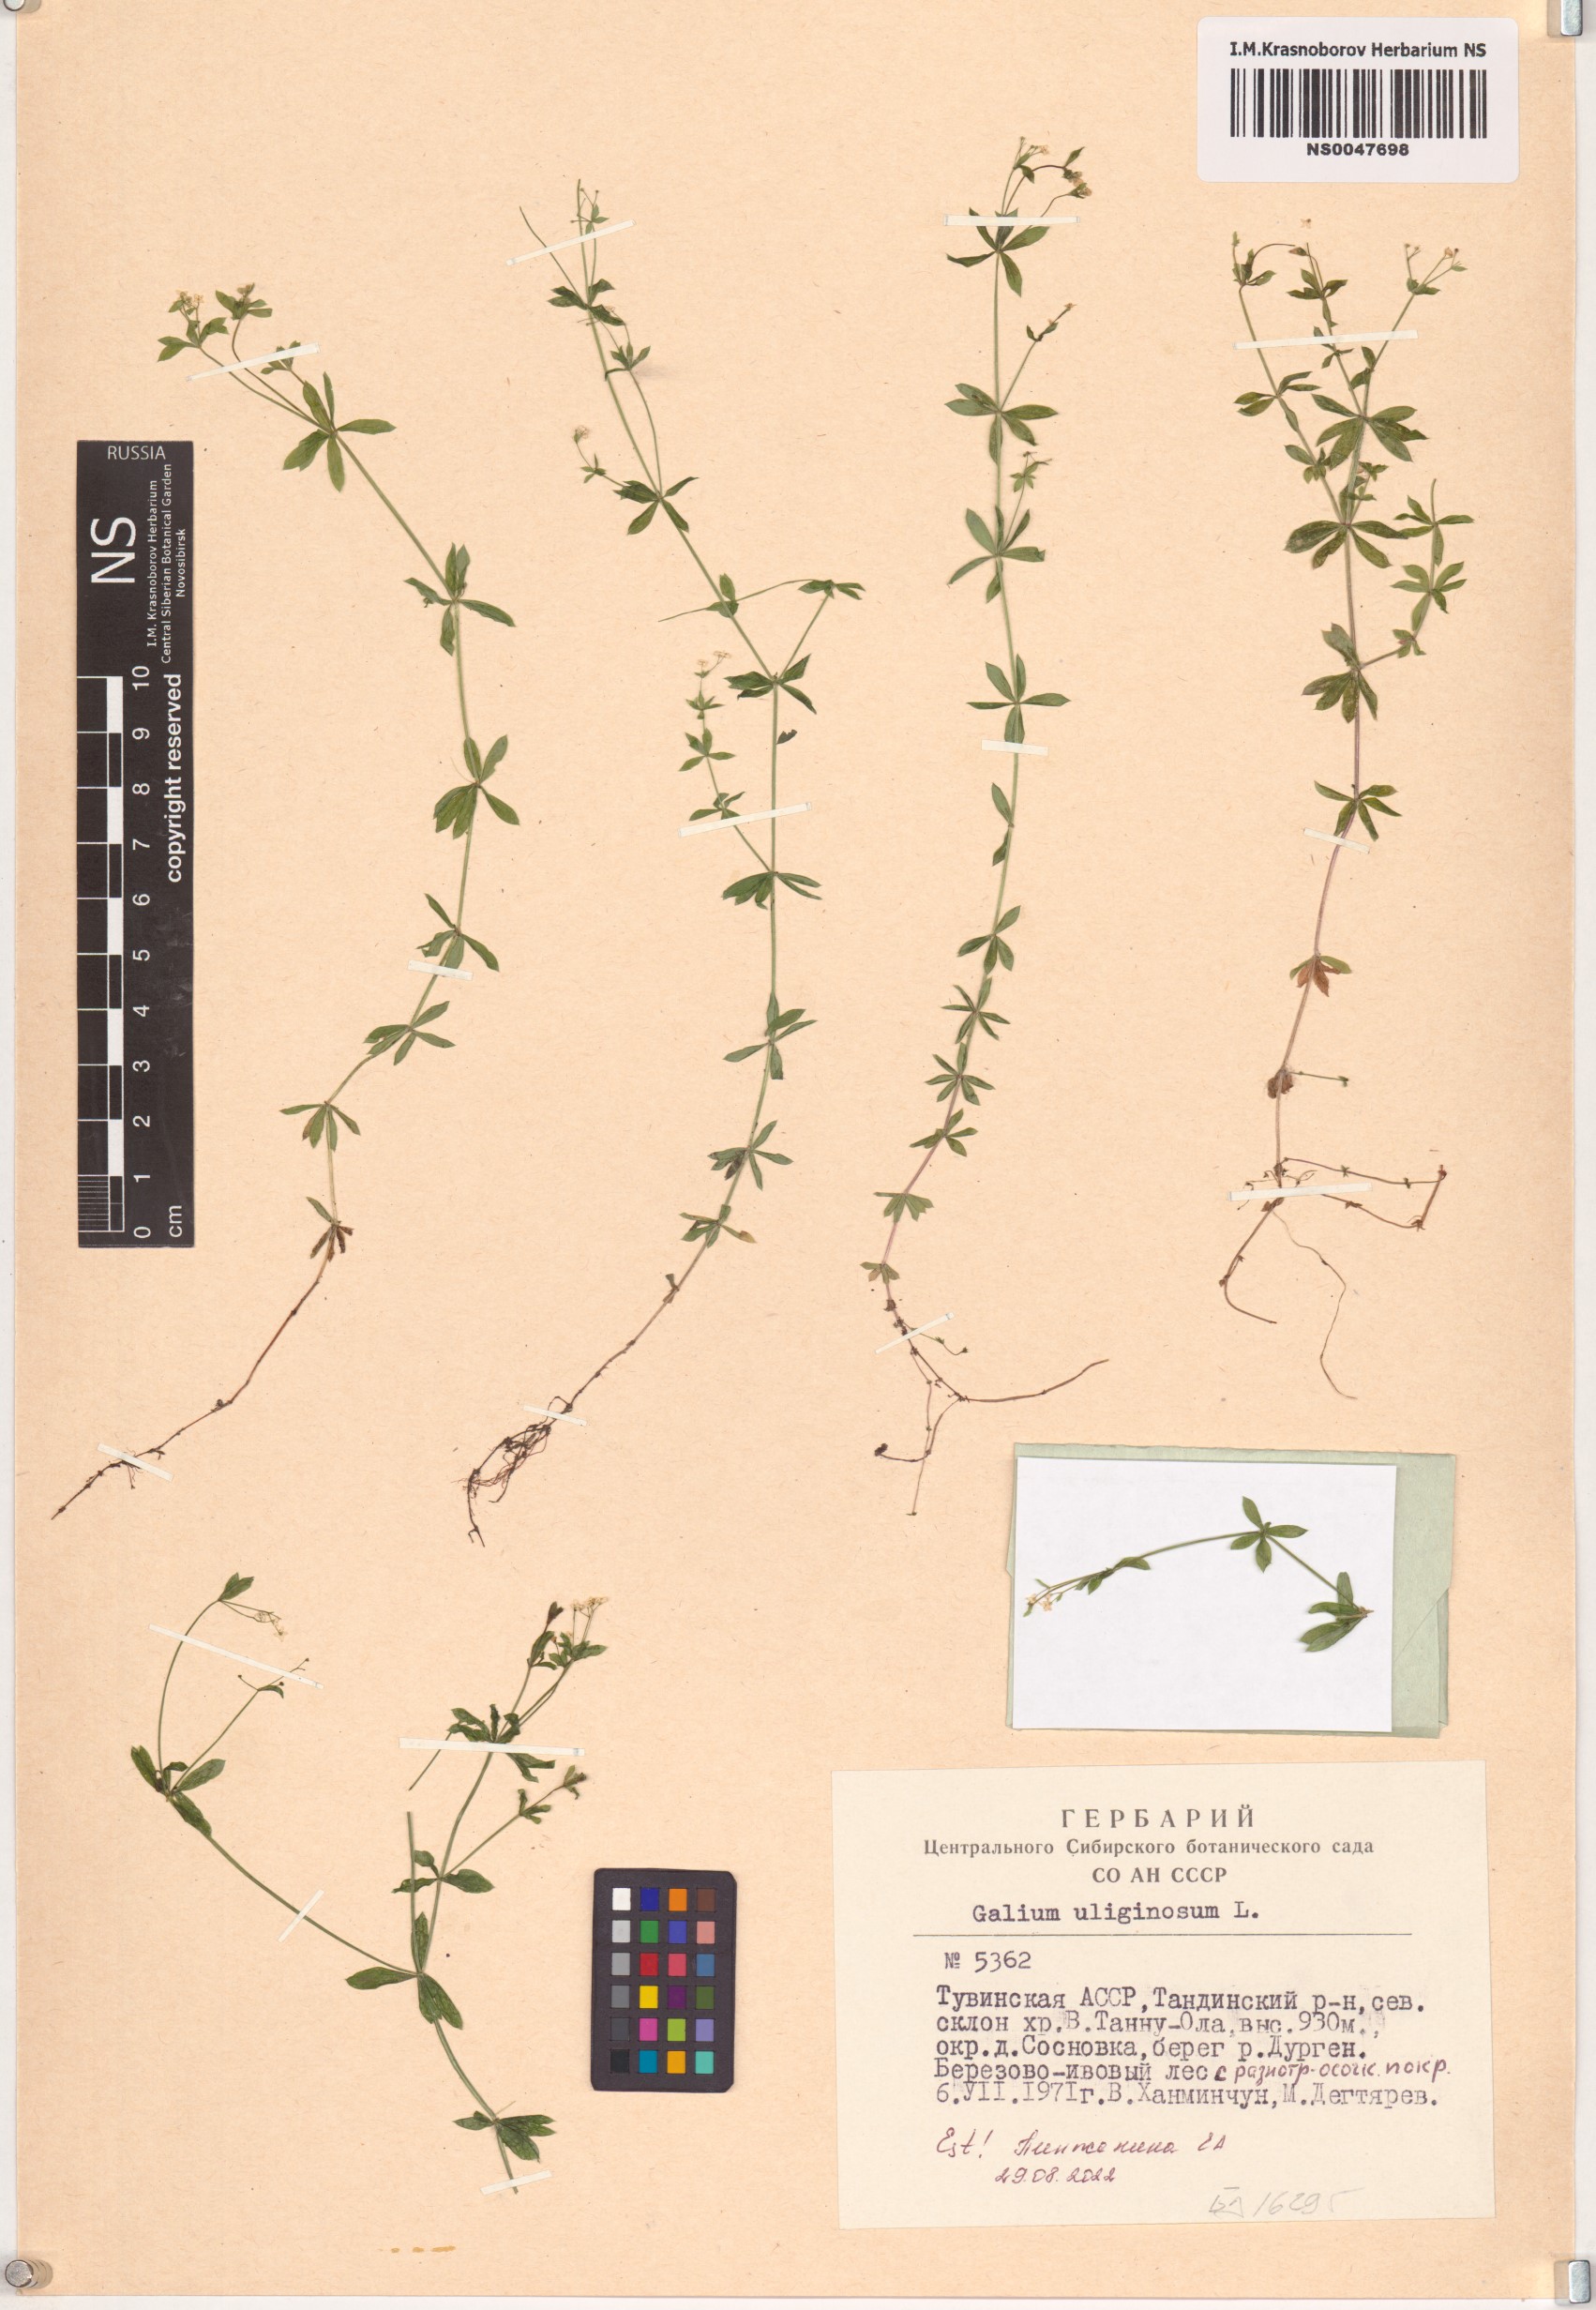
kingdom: Plantae
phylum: Tracheophyta
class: Magnoliopsida
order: Gentianales
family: Rubiaceae
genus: Galium
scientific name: Galium uliginosum
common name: Fen bedstraw
